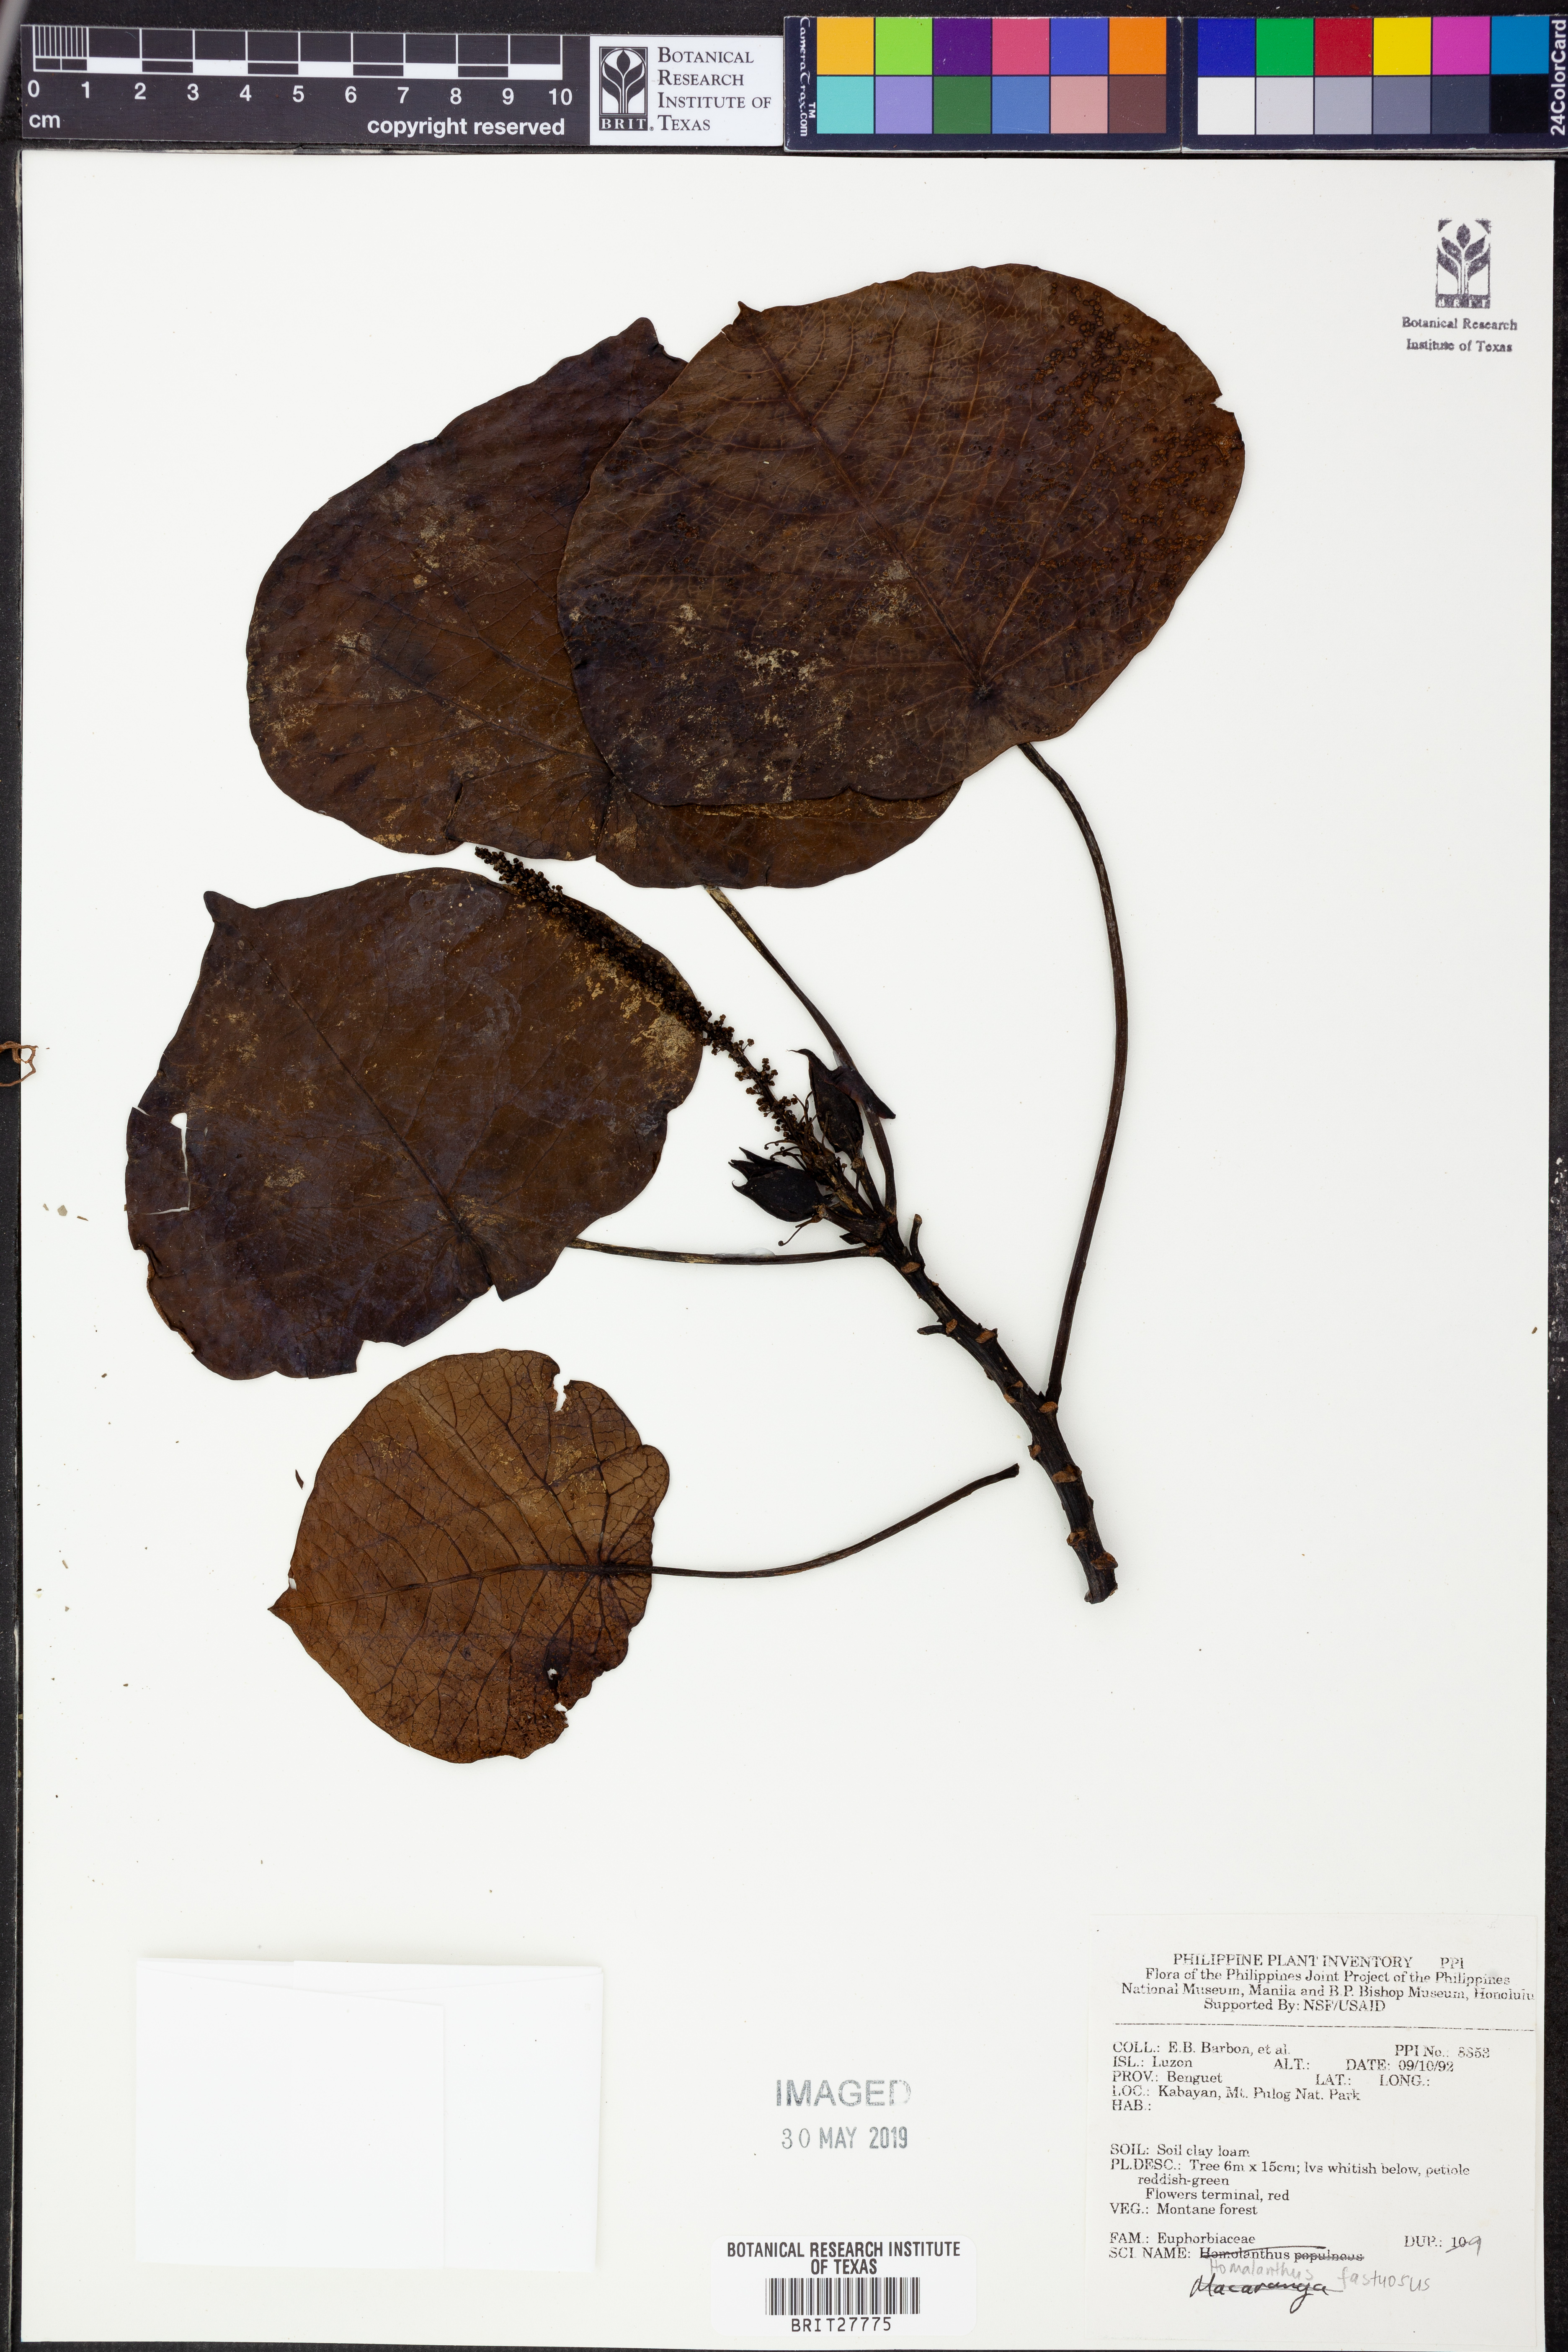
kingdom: Plantae
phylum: Tracheophyta
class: Magnoliopsida
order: Malpighiales
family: Euphorbiaceae
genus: Homalanthus
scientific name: Homalanthus fastuosus
